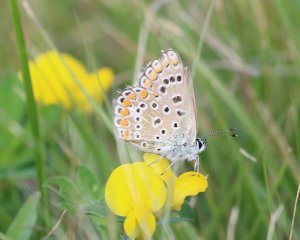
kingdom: Animalia
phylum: Arthropoda
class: Insecta
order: Lepidoptera
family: Lycaenidae
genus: Polyommatus
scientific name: Polyommatus icarus
